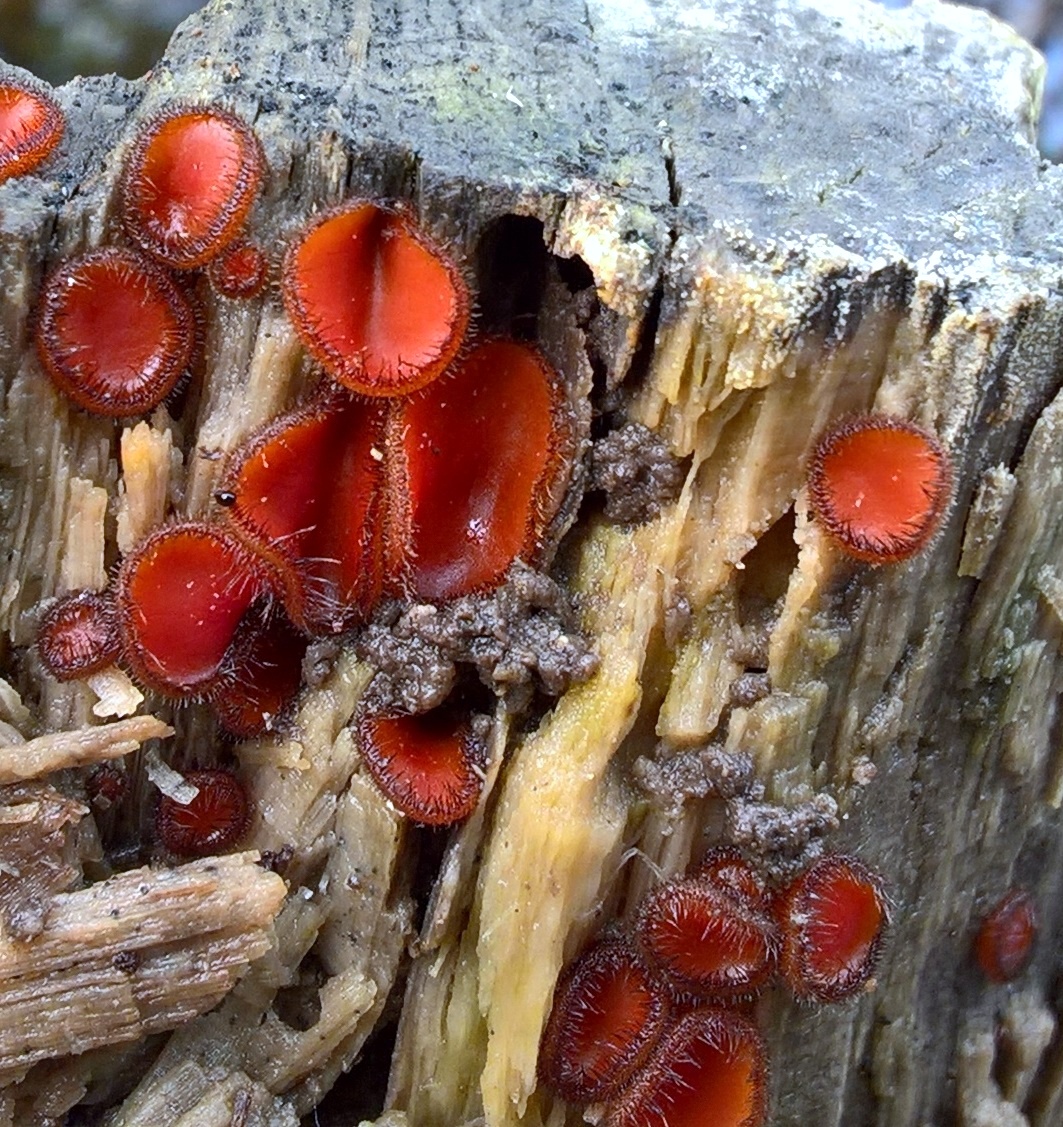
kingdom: Fungi
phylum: Ascomycota
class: Pezizomycetes
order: Pezizales
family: Pyronemataceae
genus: Scutellinia
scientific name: Scutellinia scutellata
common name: frynset skjoldbæger
